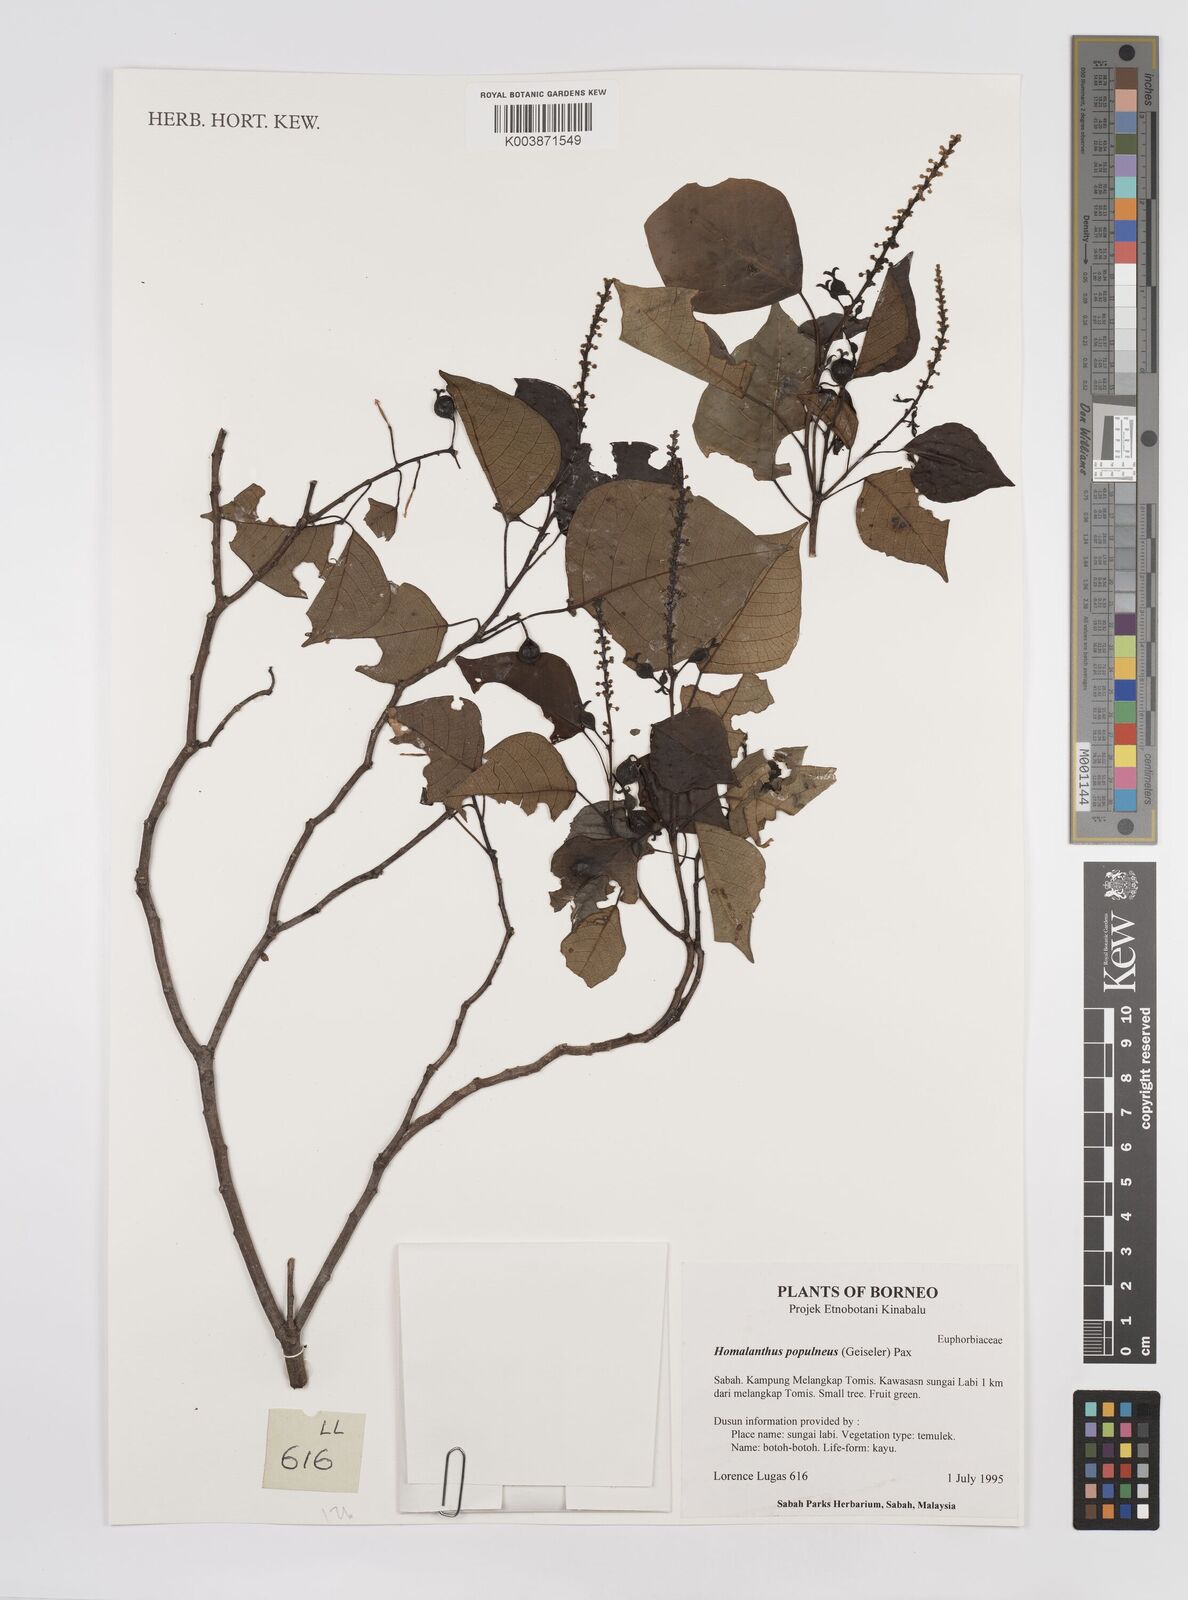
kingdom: Plantae
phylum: Tracheophyta
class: Magnoliopsida
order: Malpighiales
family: Euphorbiaceae
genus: Homalanthus
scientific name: Homalanthus populneus
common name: Spurge
